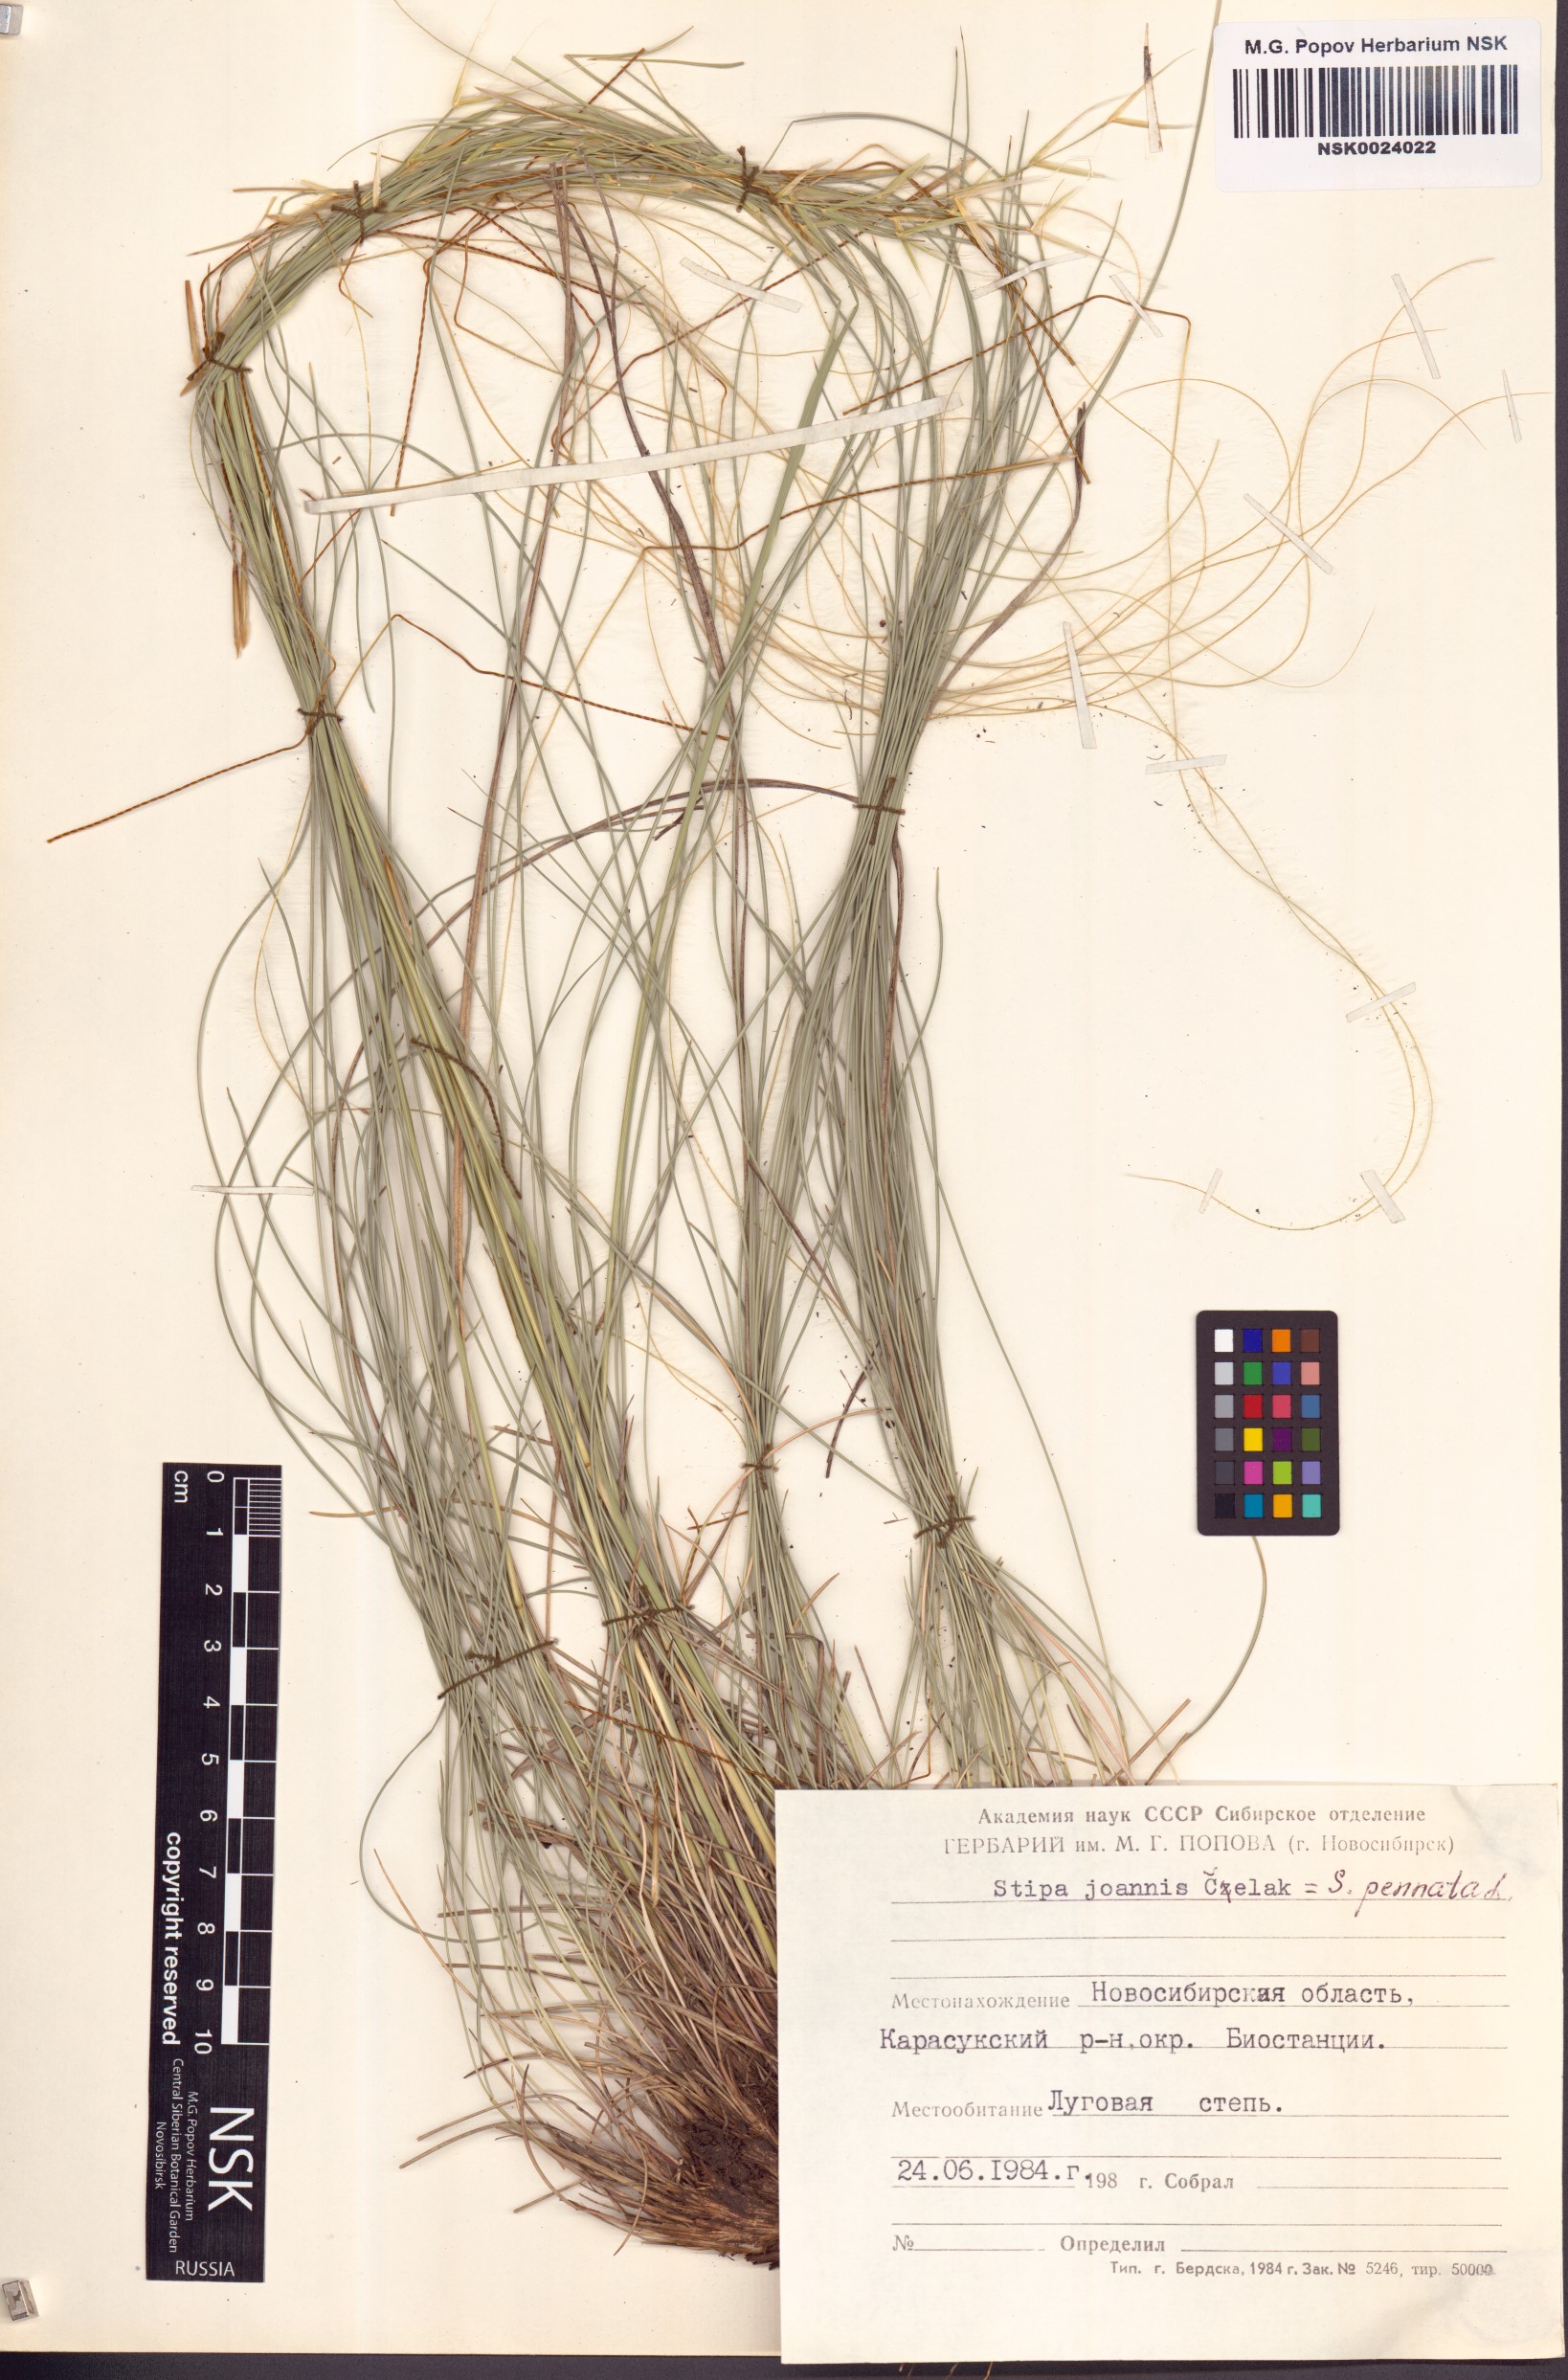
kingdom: Plantae
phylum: Tracheophyta
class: Liliopsida
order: Poales
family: Poaceae
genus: Stipa
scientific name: Stipa pennata
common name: European feather grass
